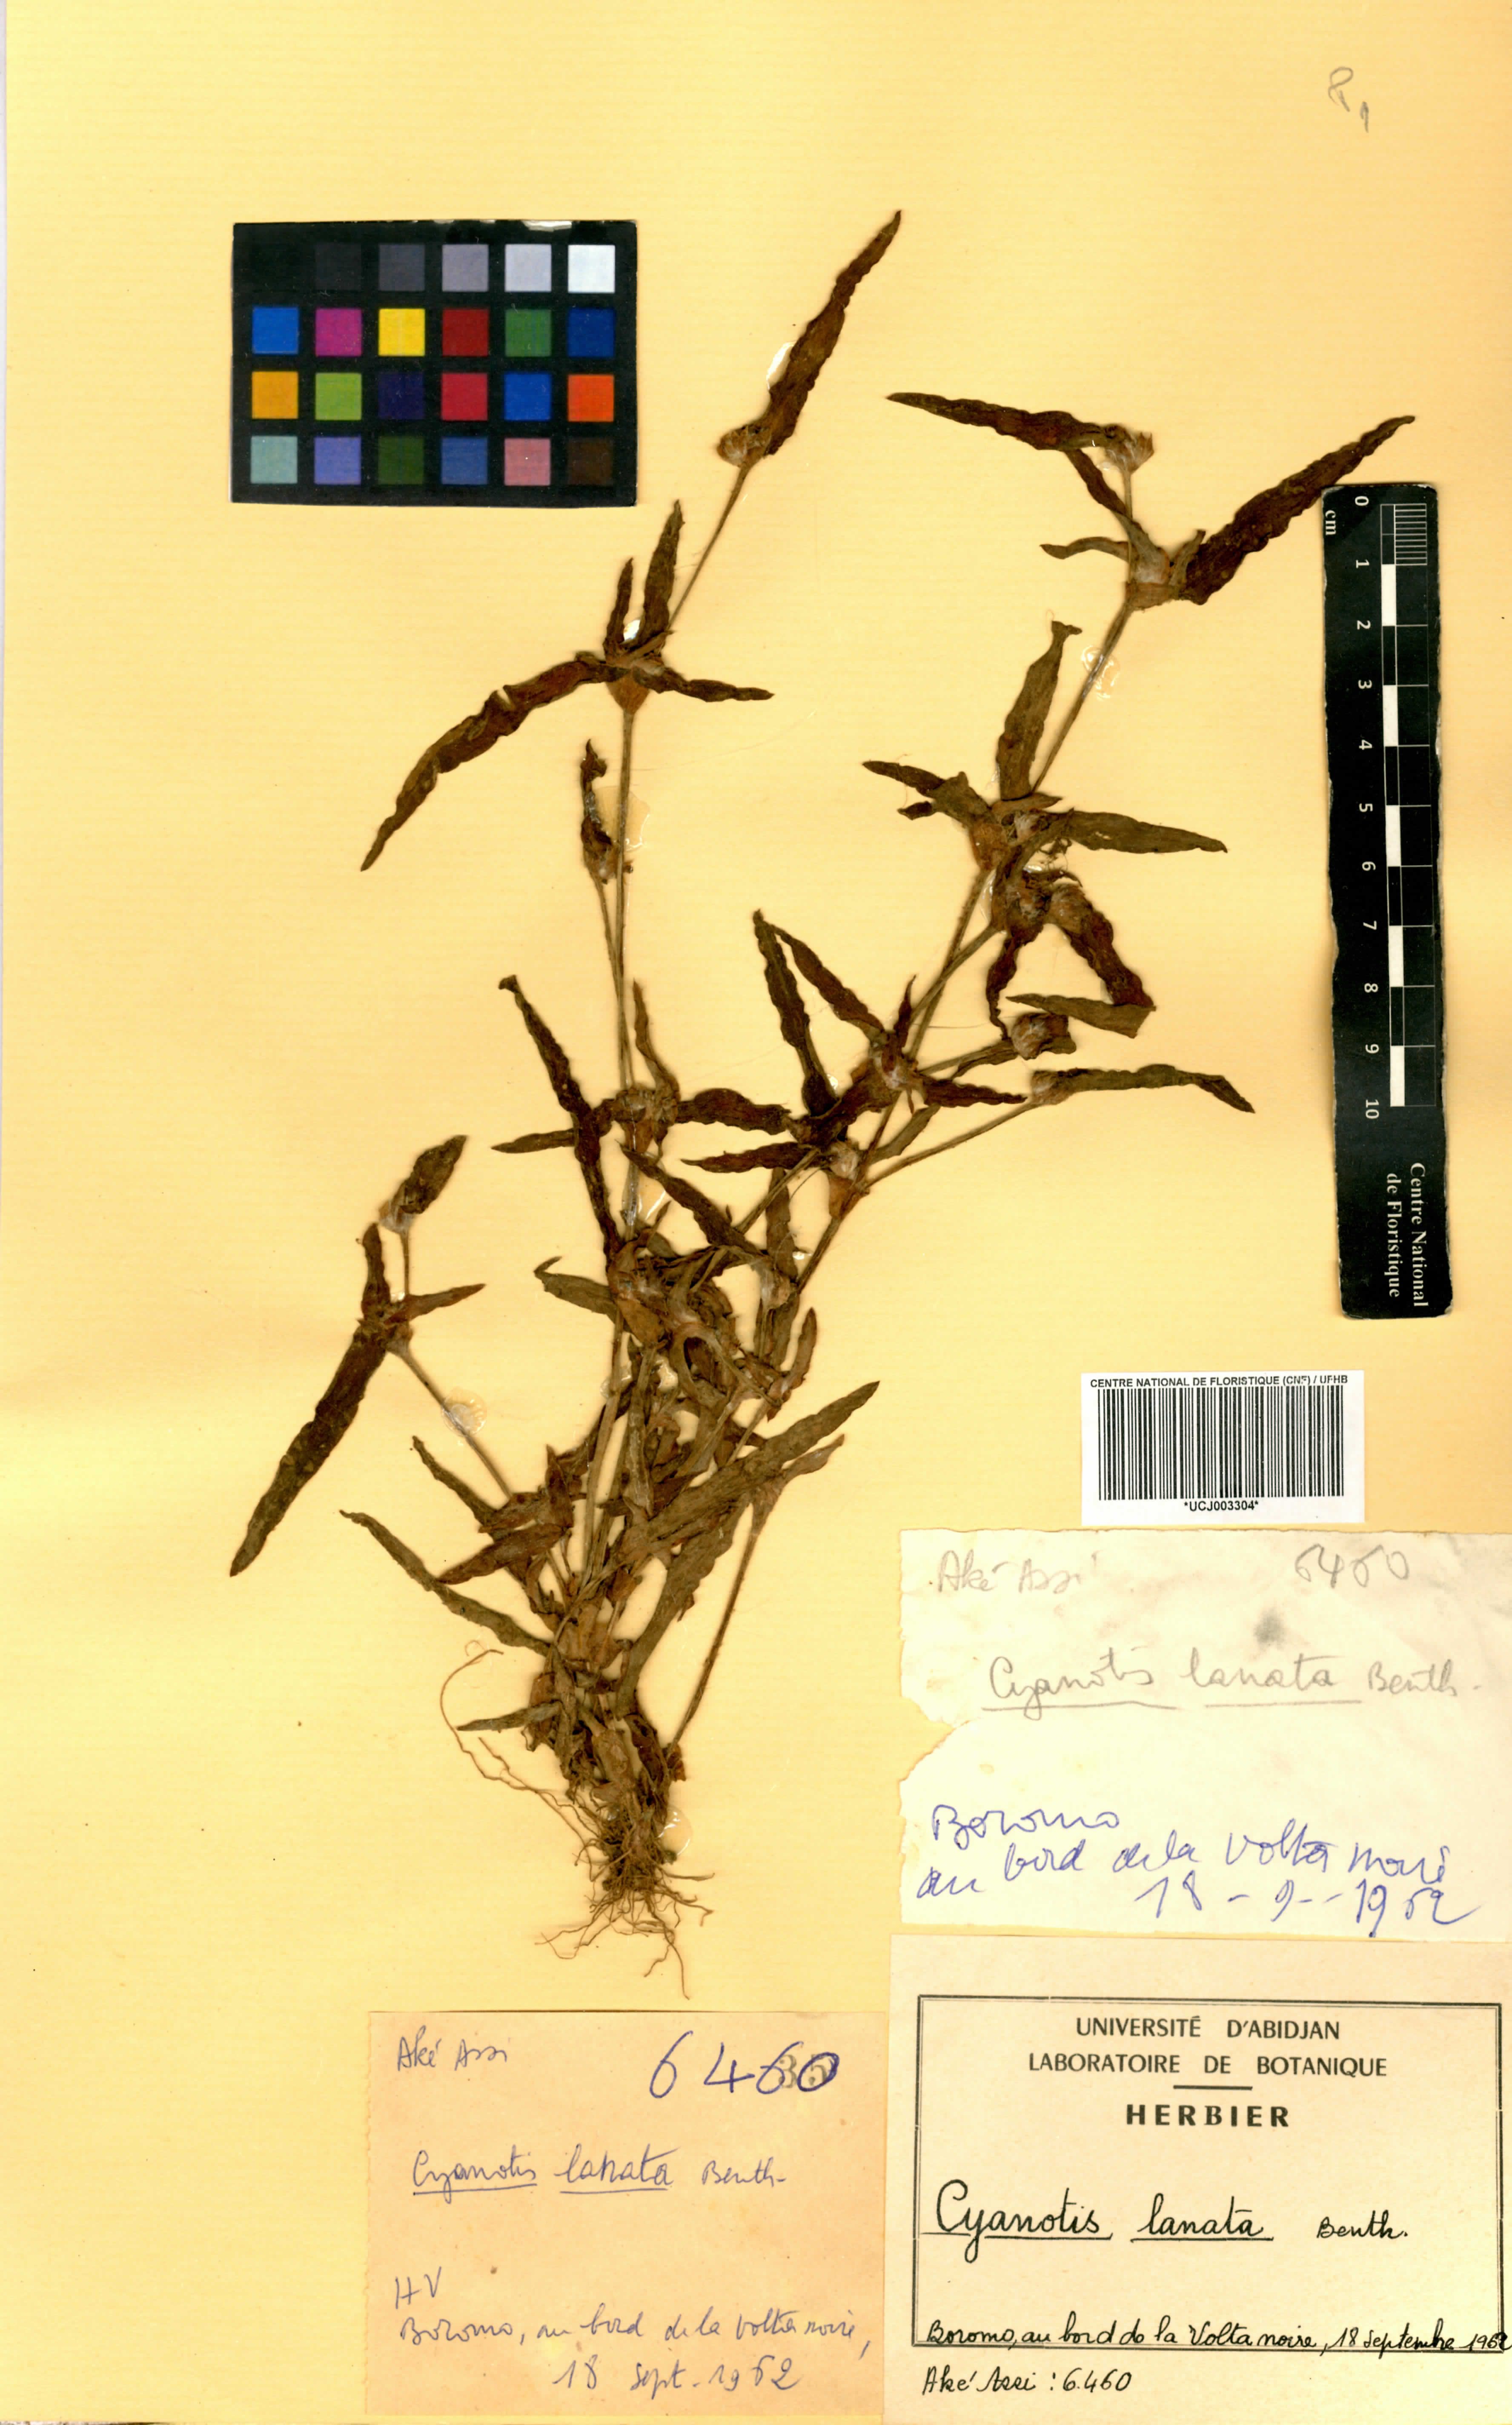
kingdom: Plantae
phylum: Tracheophyta
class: Liliopsida
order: Commelinales
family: Commelinaceae
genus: Cyanotis
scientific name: Cyanotis lanata
